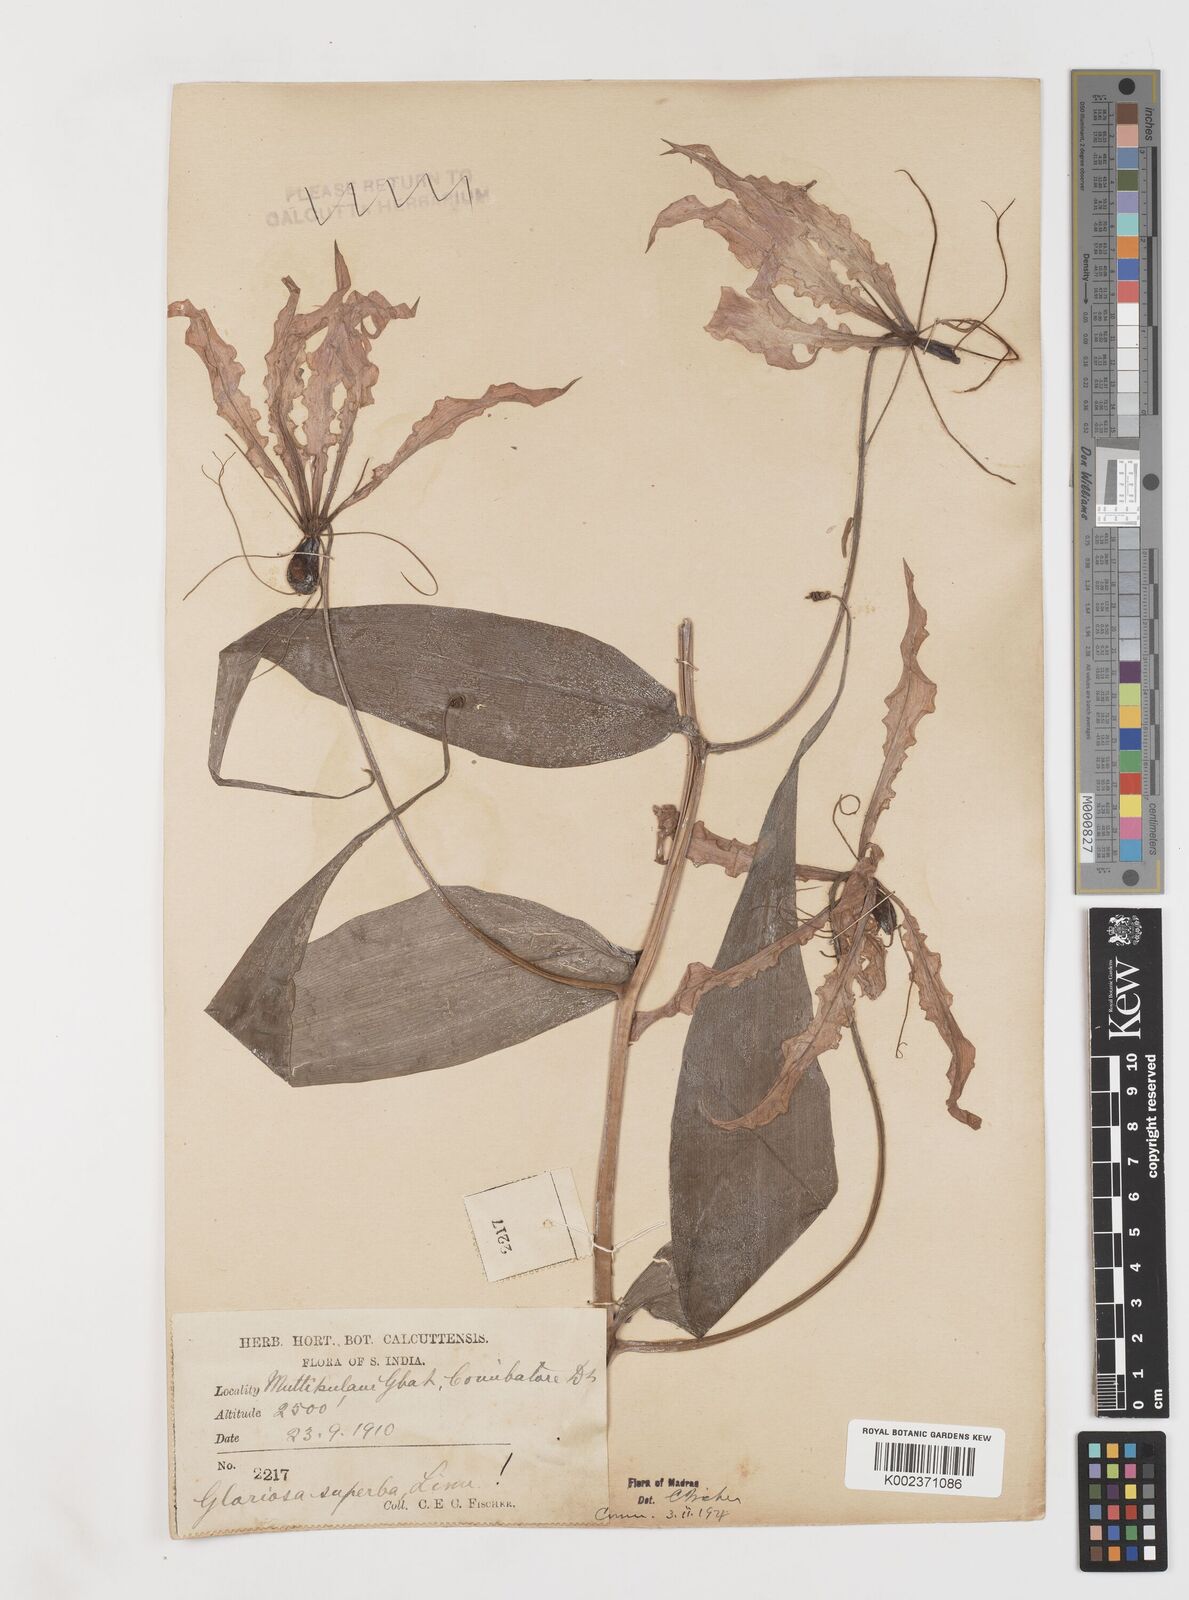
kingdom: Plantae
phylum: Tracheophyta
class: Liliopsida
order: Liliales
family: Colchicaceae
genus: Gloriosa
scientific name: Gloriosa superba
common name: Flame lily
